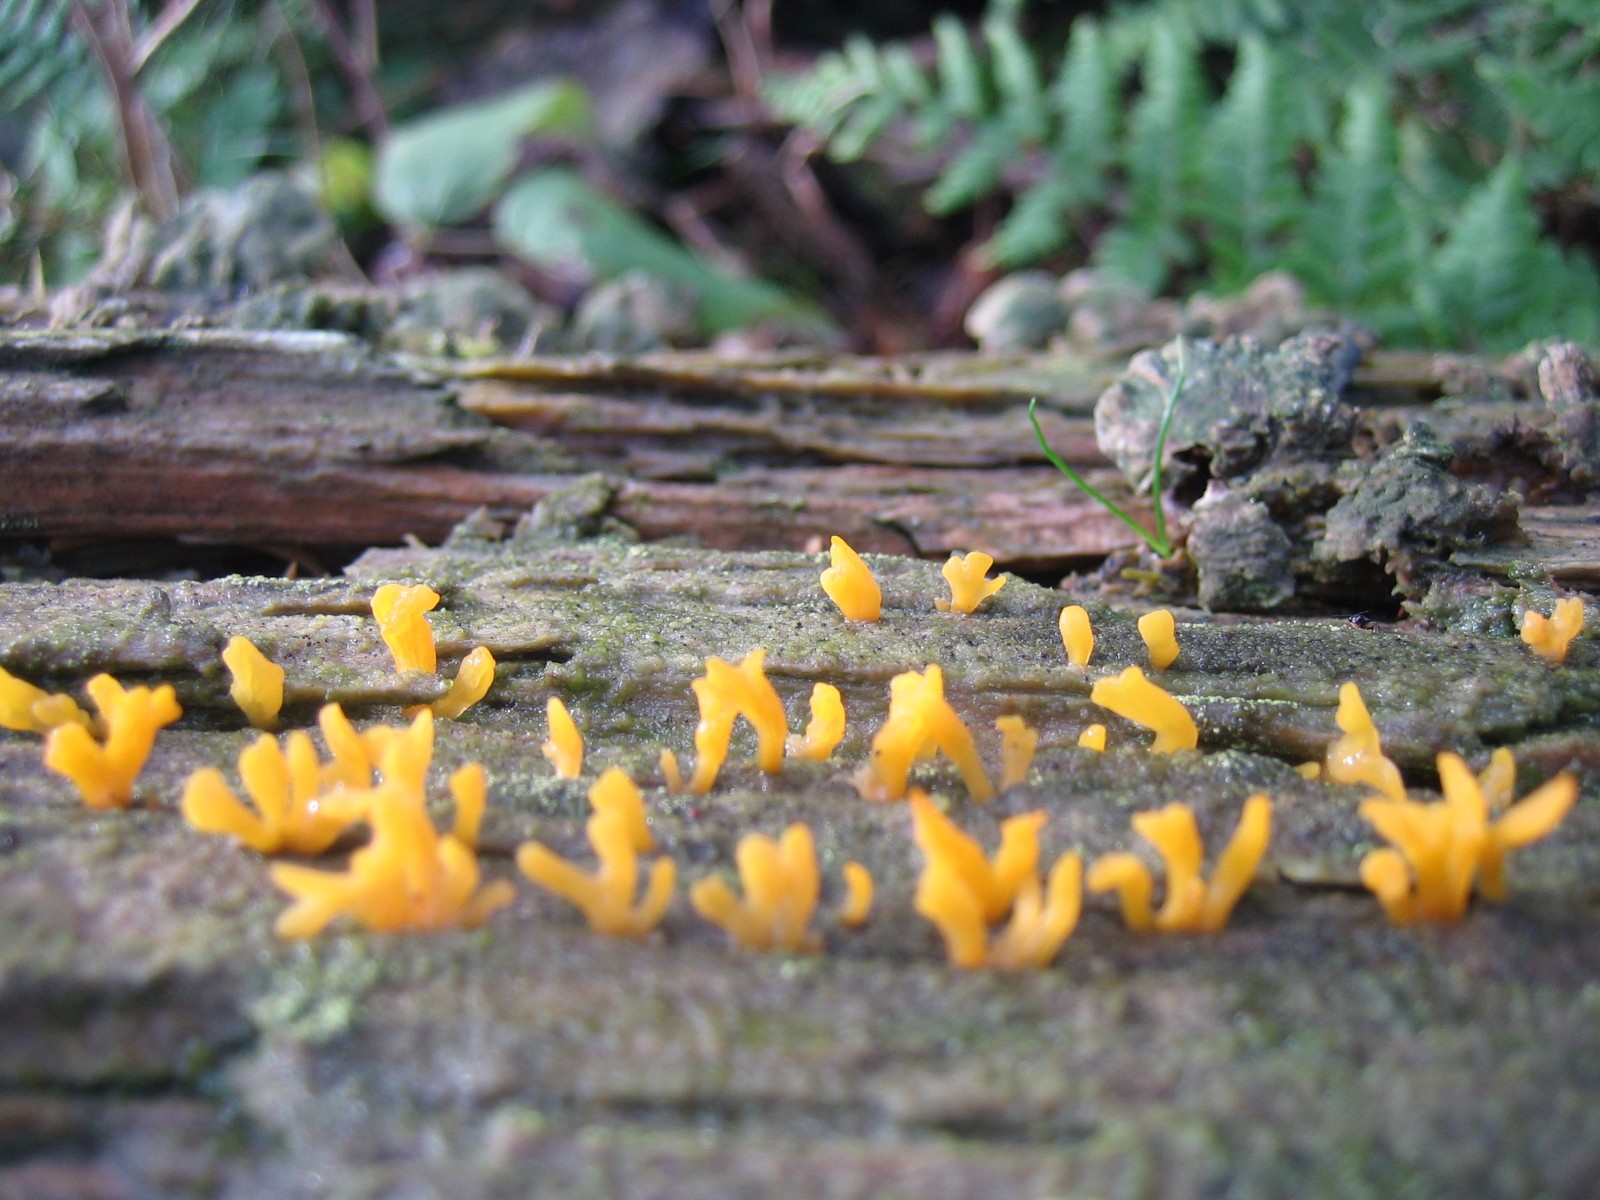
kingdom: Fungi
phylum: Basidiomycota
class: Dacrymycetes
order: Dacrymycetales
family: Dacrymycetaceae
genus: Calocera
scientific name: Calocera furcata
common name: fyrre-guldgaffel
